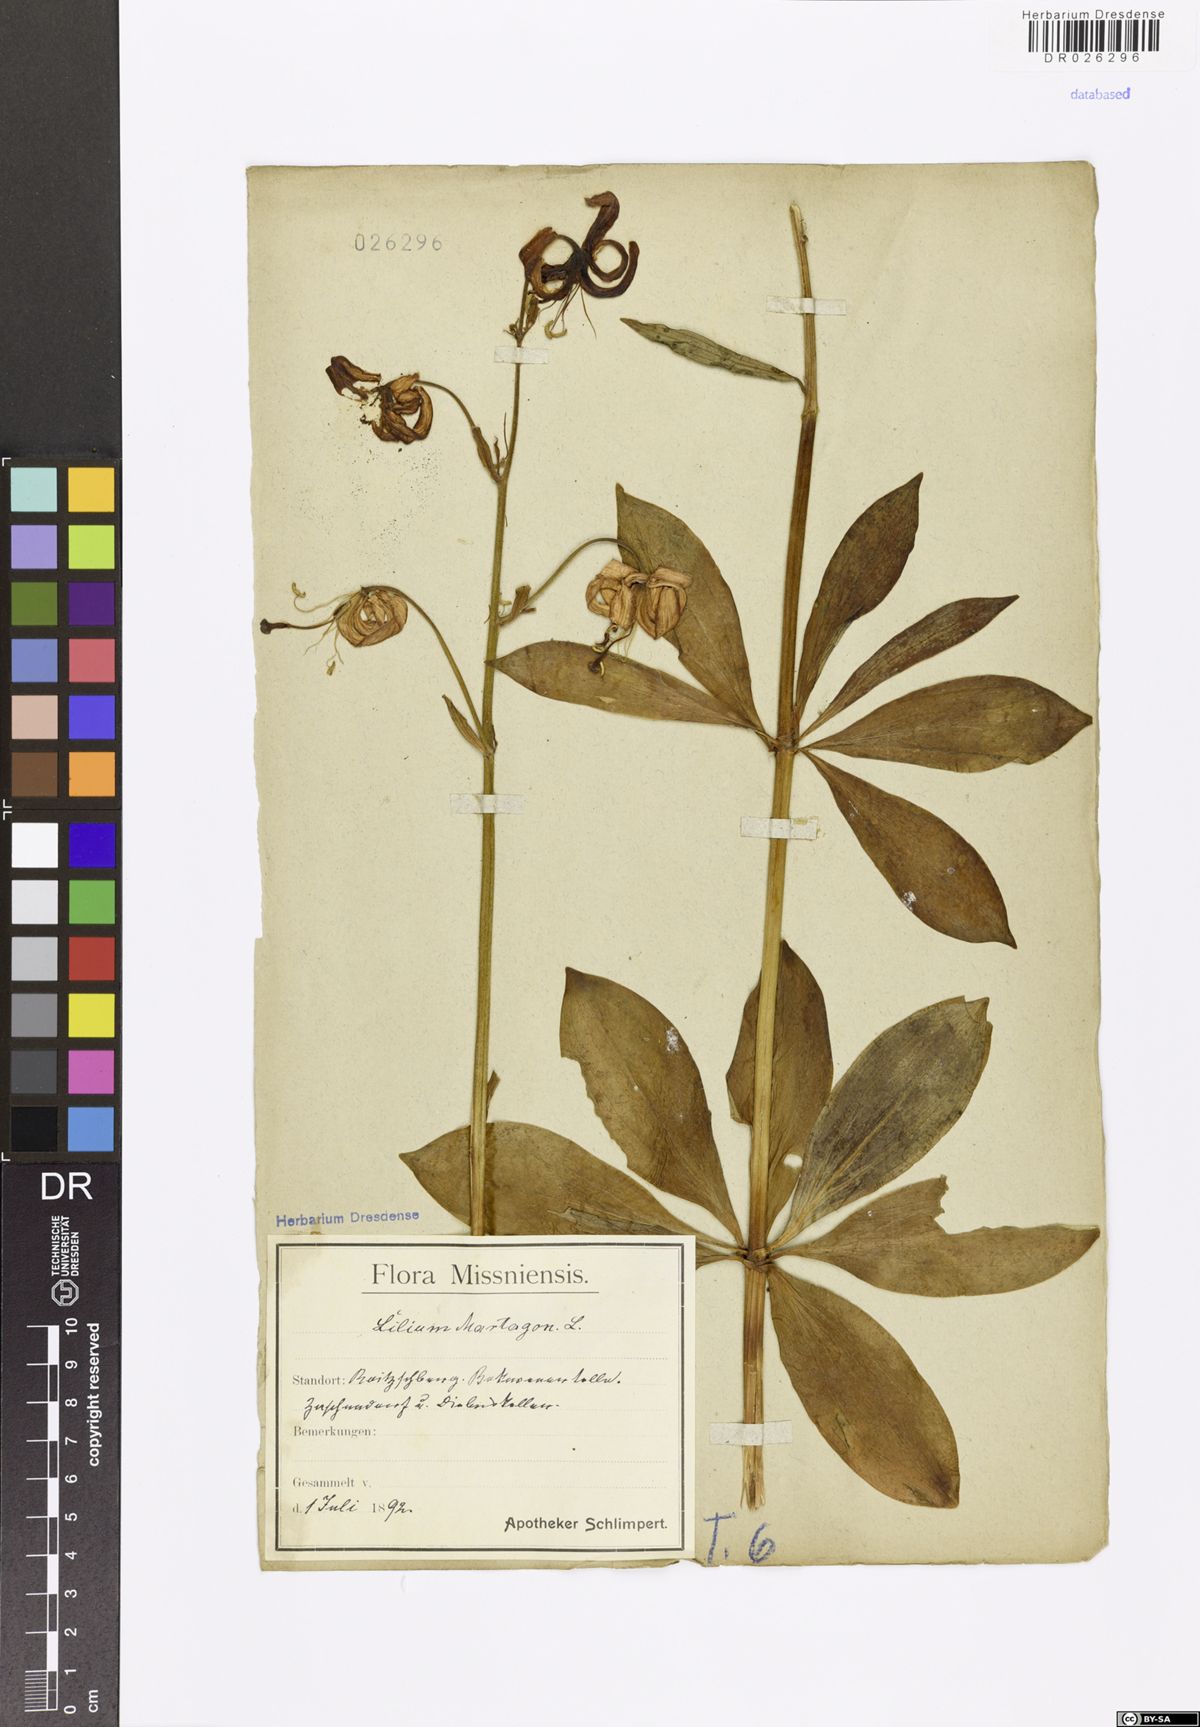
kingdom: Plantae
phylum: Tracheophyta
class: Liliopsida
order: Liliales
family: Liliaceae
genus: Lilium
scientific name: Lilium martagon
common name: Martagon lily
